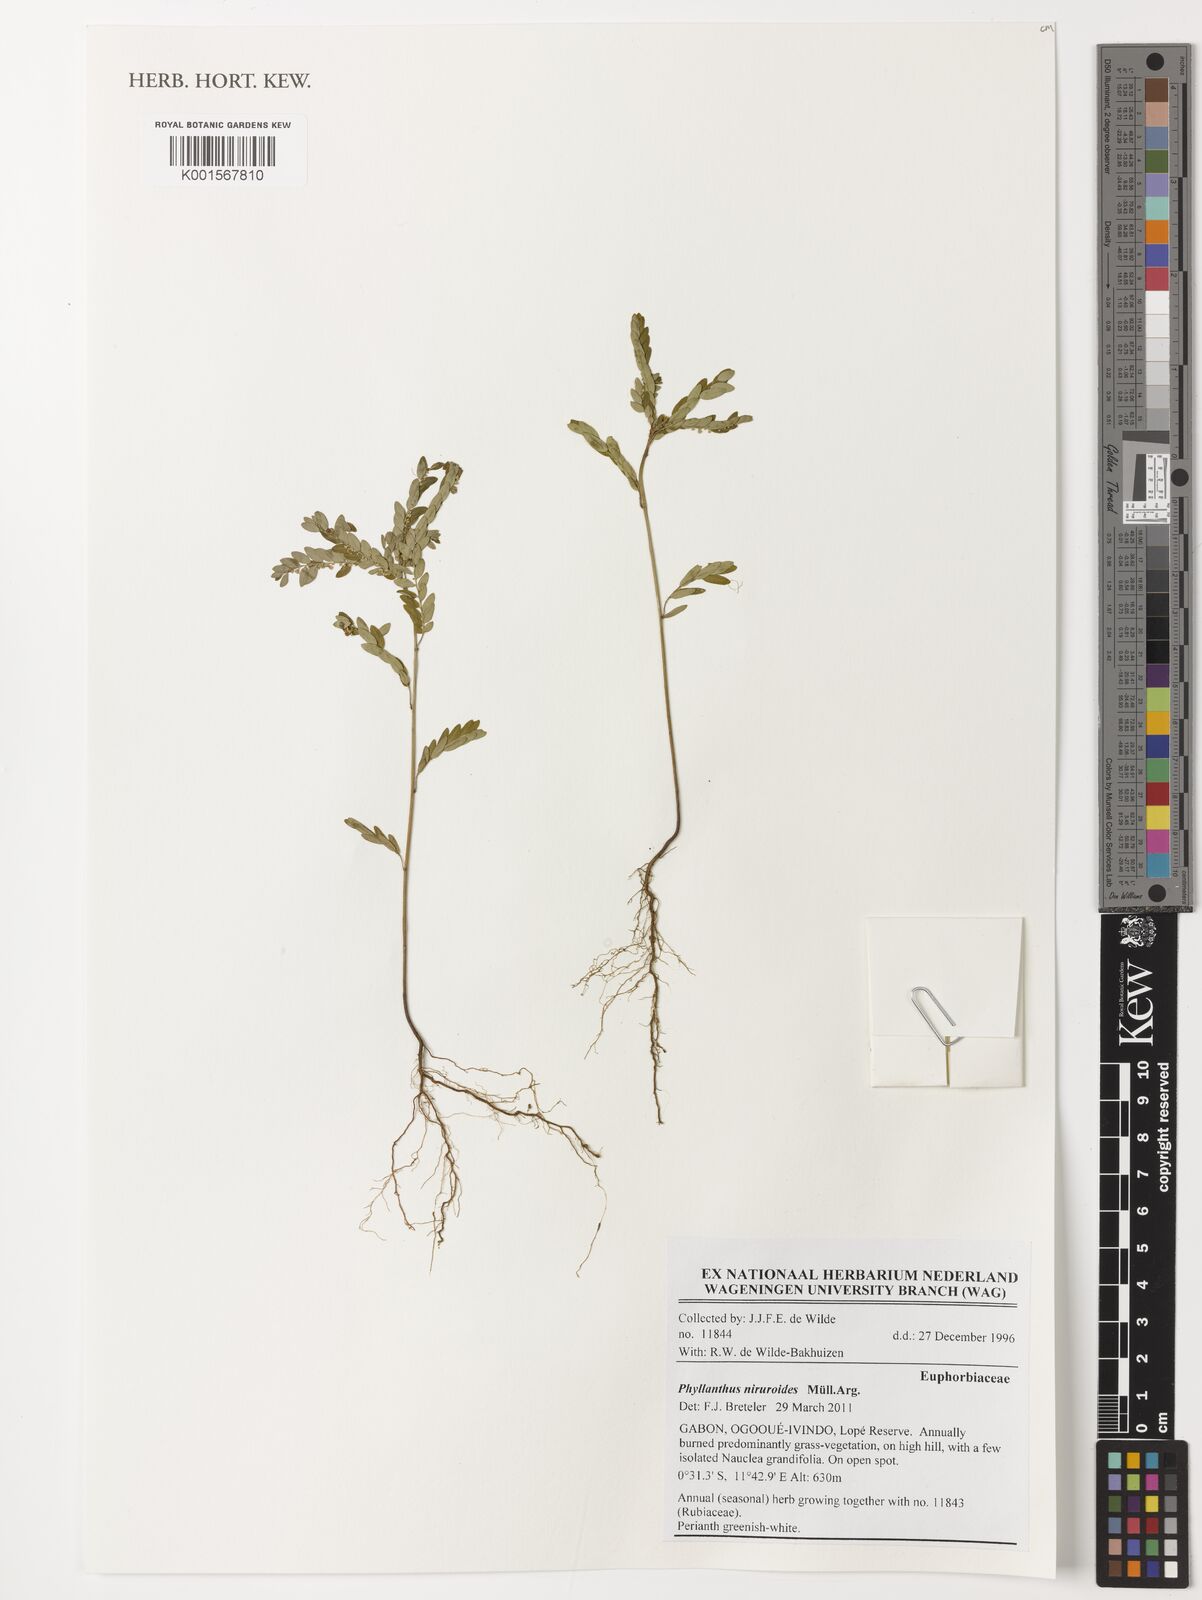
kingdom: Plantae
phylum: Tracheophyta
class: Magnoliopsida
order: Malpighiales
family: Phyllanthaceae
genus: Phyllanthus
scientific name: Phyllanthus niruroides
